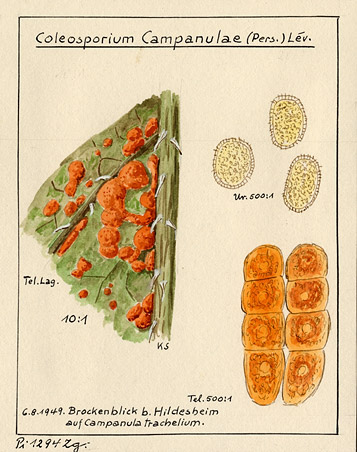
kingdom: Fungi
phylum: Basidiomycota
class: Pucciniomycetes
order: Pucciniales
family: Coleosporiaceae
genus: Coleosporium
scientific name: Coleosporium campanulae
